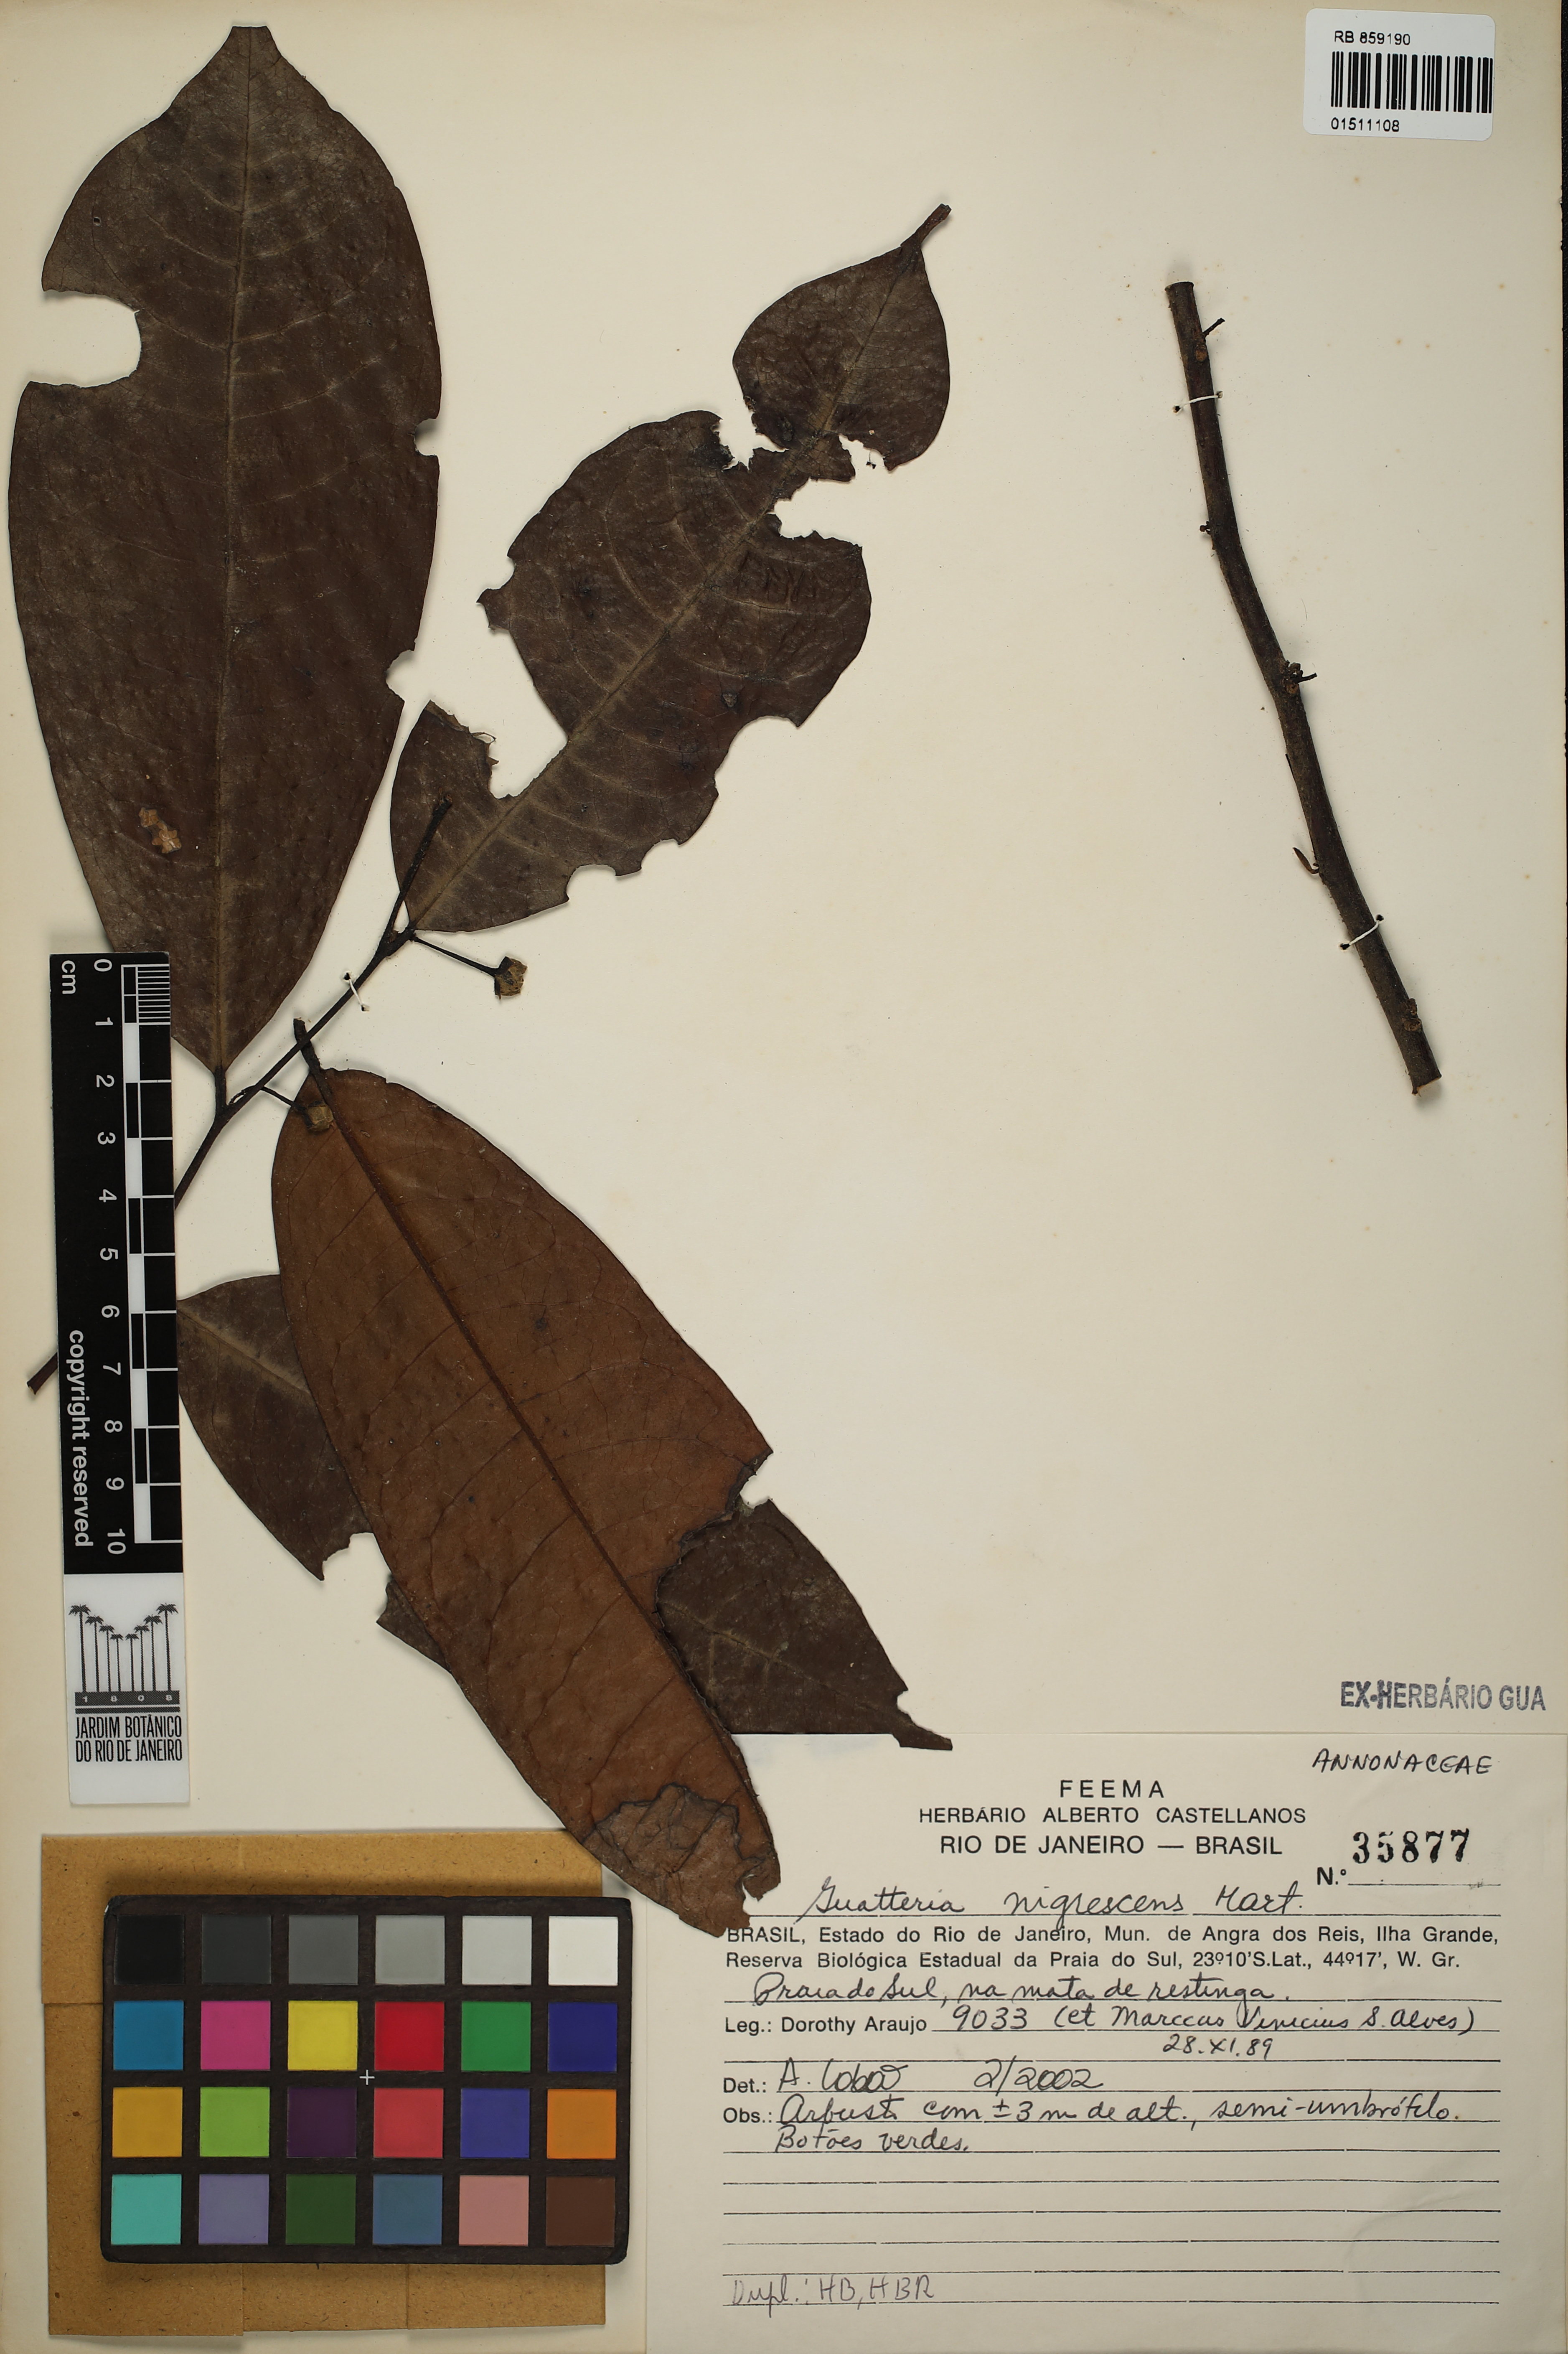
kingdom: Plantae
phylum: Tracheophyta
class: Magnoliopsida
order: Magnoliales
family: Annonaceae
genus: Guatteria
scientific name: Guatteria australis
